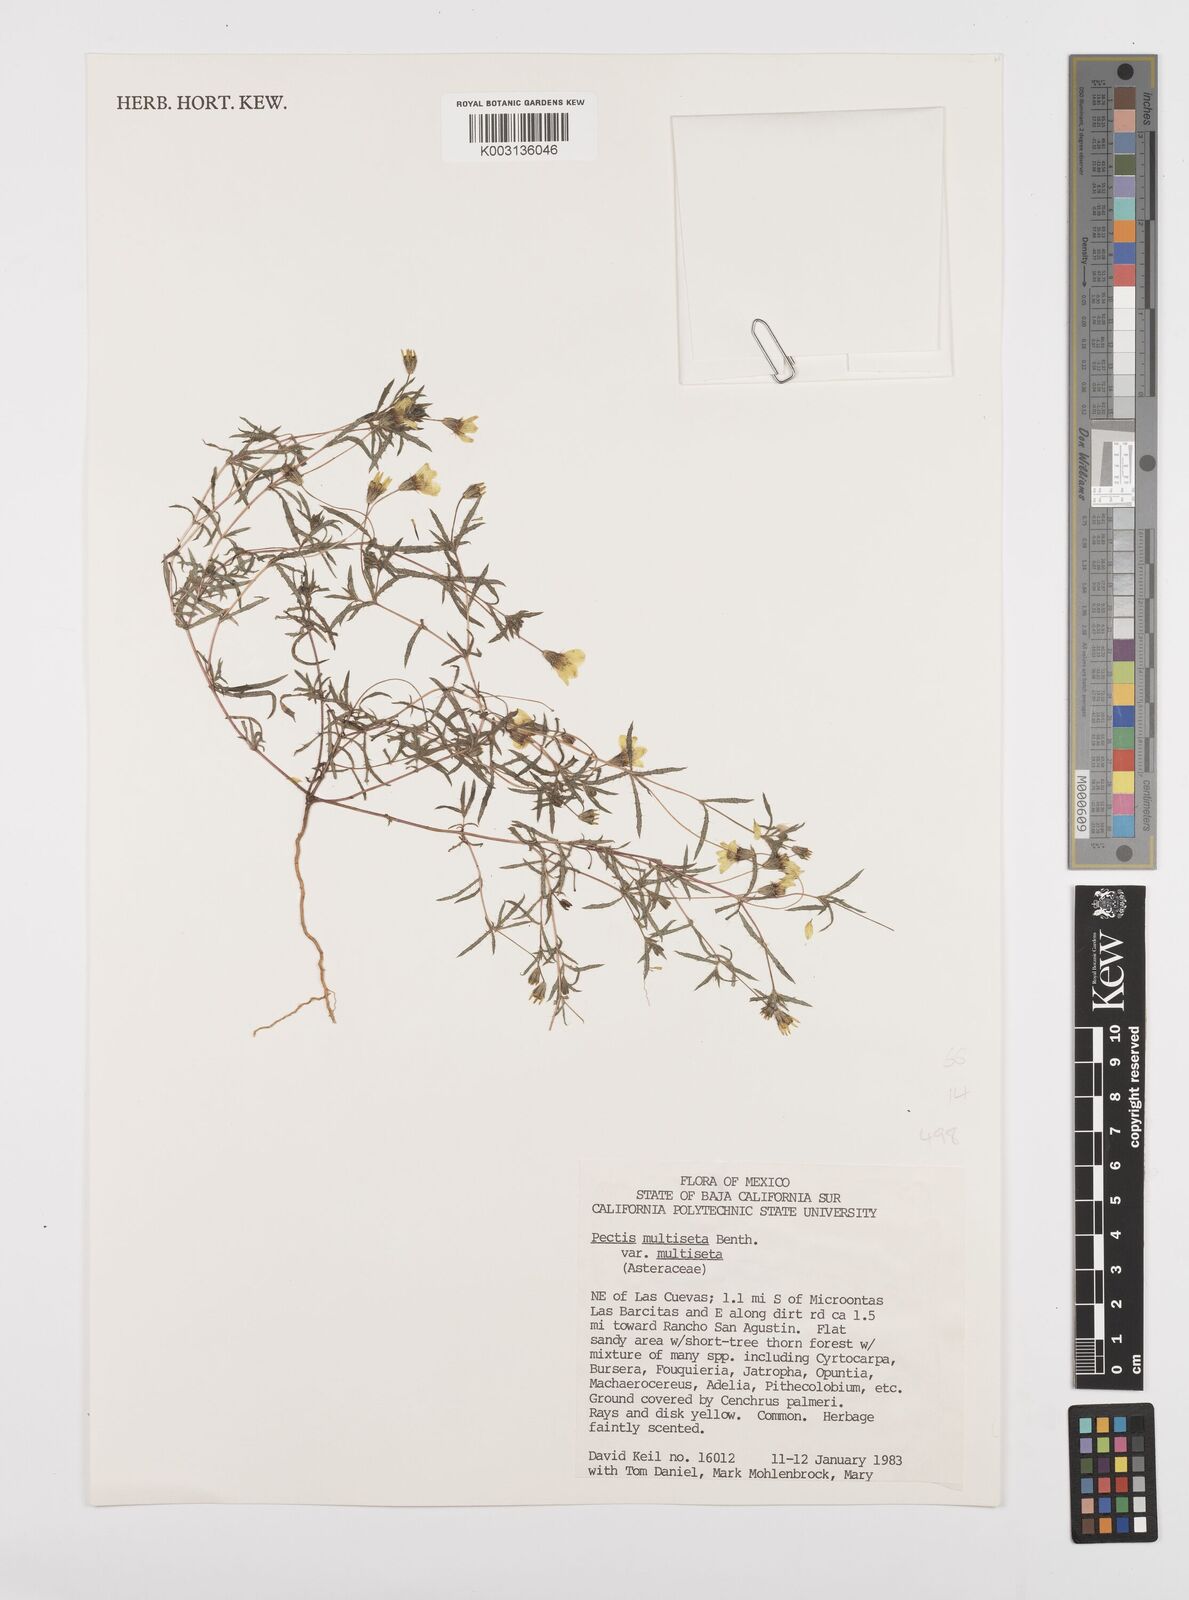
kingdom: Plantae
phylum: Tracheophyta
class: Magnoliopsida
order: Asterales
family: Asteraceae
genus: Pectis
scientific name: Pectis multiseta
